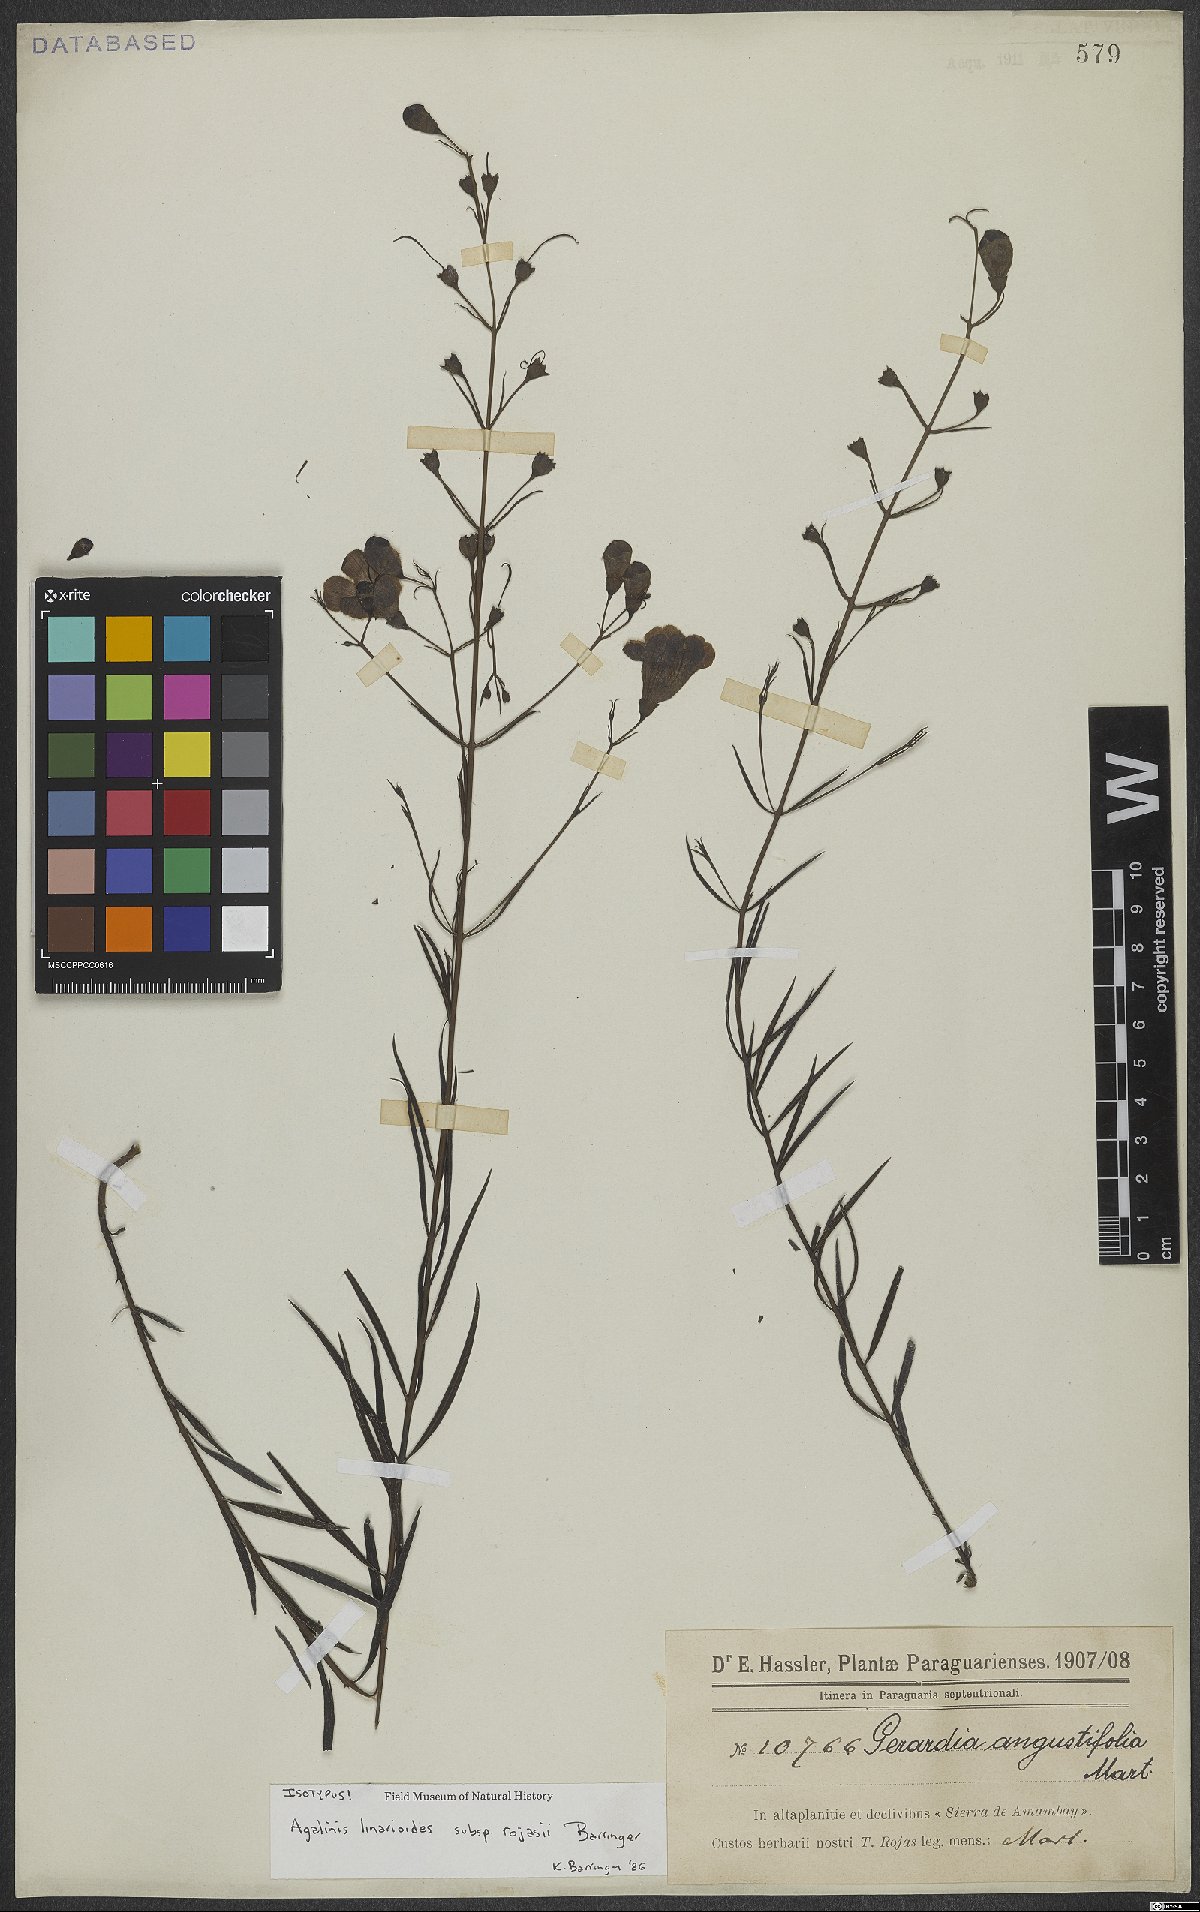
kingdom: Plantae
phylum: Tracheophyta
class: Magnoliopsida
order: Lamiales
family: Orobanchaceae
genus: Agalinis
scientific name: Agalinis linarioides
